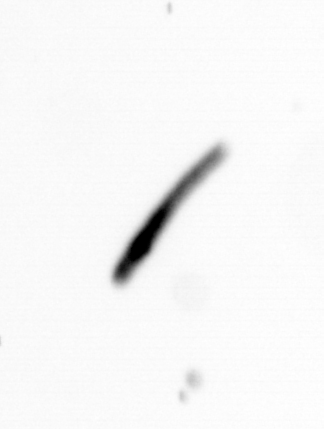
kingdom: Chromista
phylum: Ochrophyta
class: Bacillariophyceae
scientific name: Bacillariophyceae
